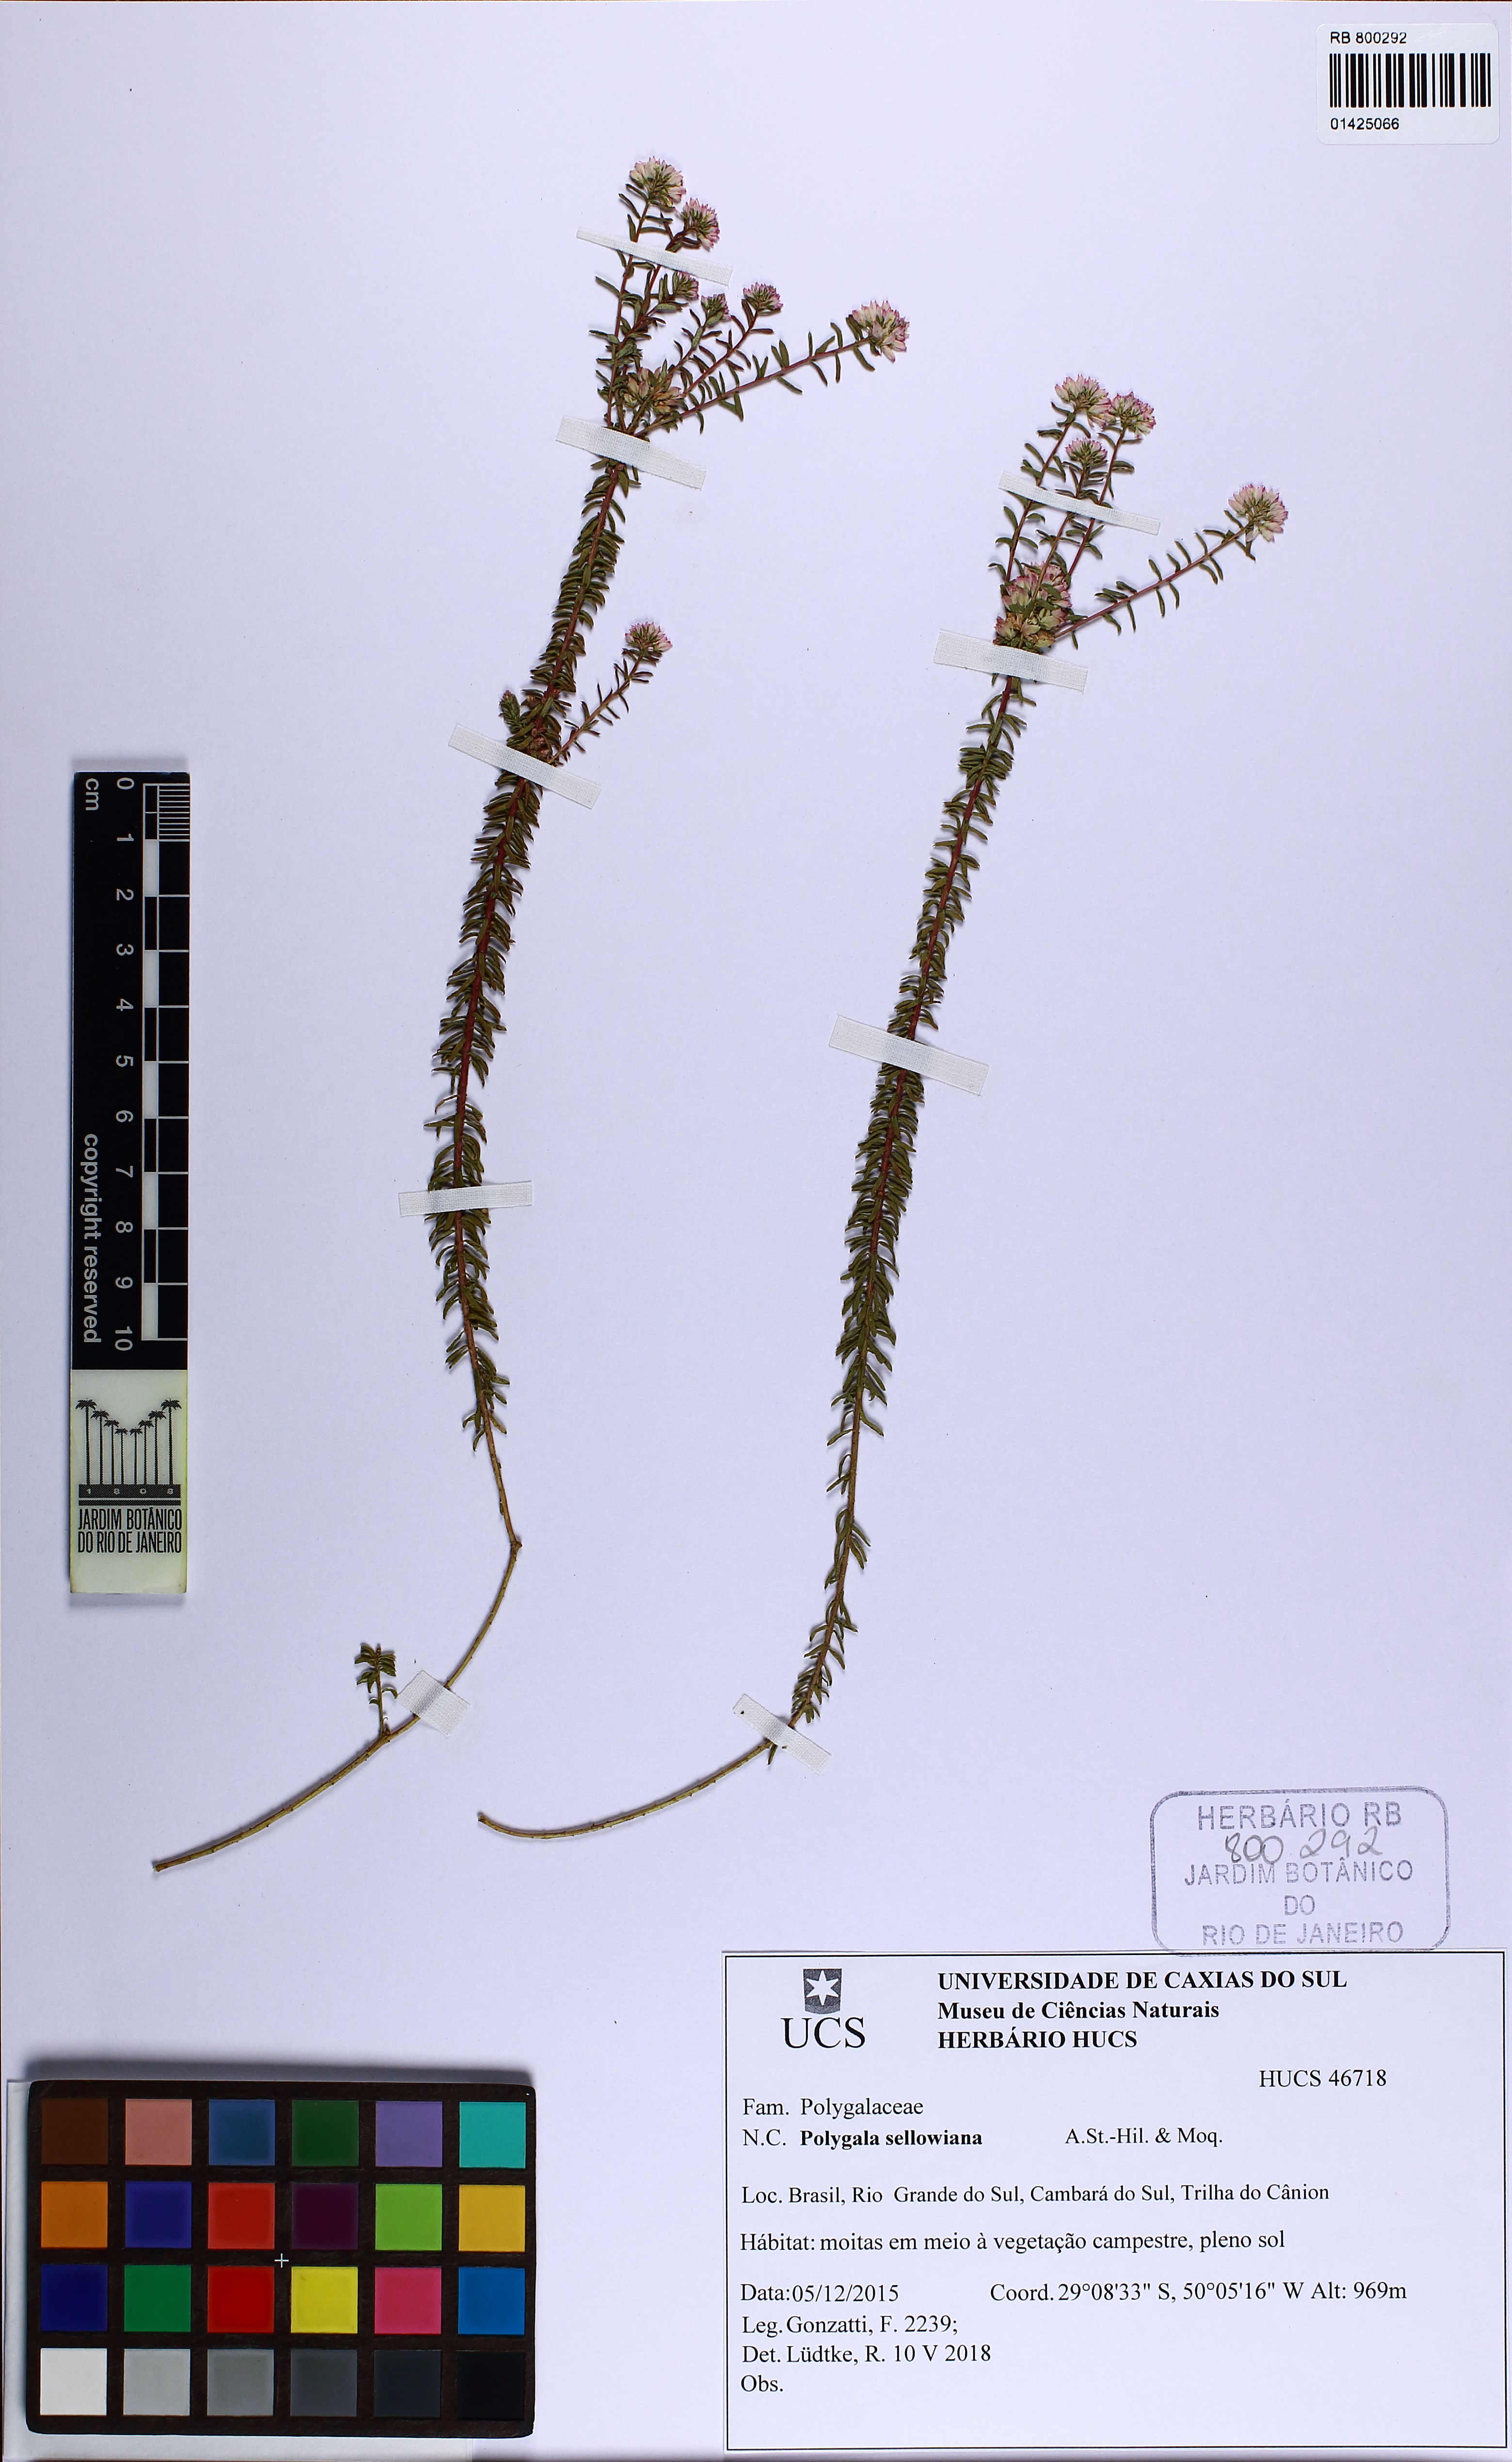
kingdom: Plantae
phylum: Tracheophyta
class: Magnoliopsida
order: Fabales
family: Polygalaceae
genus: Polygala
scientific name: Polygala sellowiana
